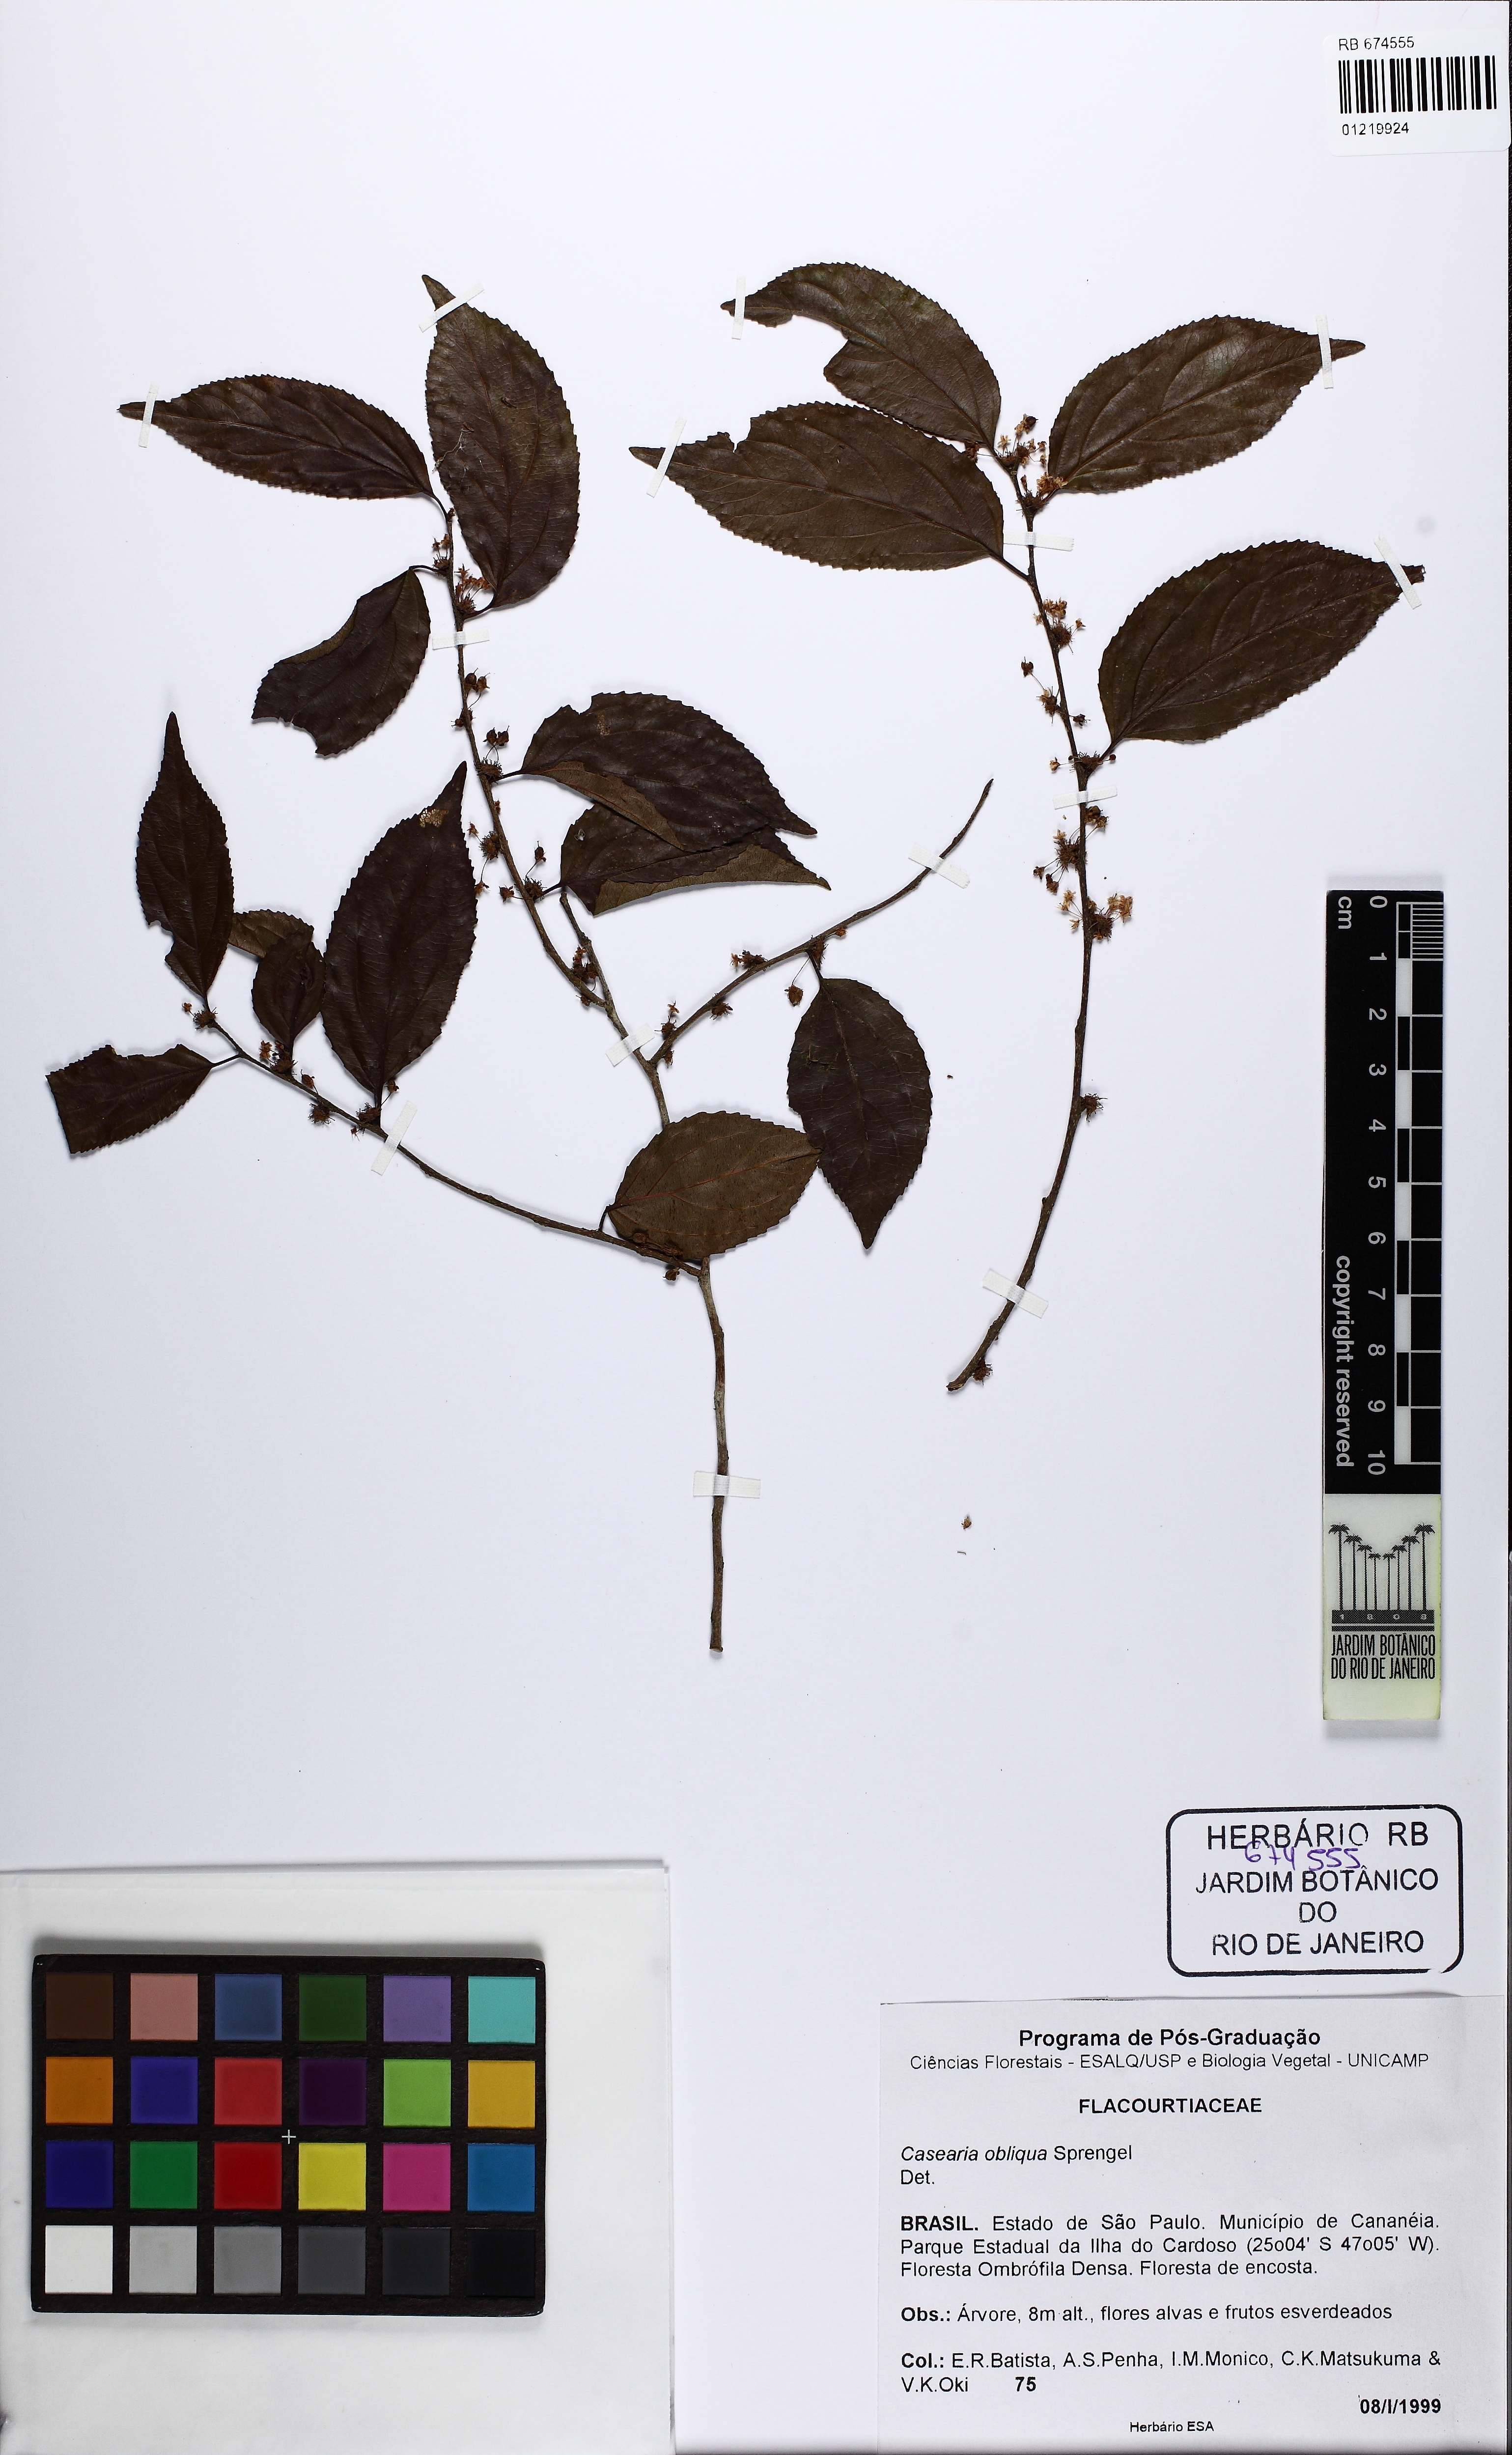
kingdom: Plantae
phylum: Tracheophyta
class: Magnoliopsida
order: Malpighiales
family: Salicaceae
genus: Casearia
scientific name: Casearia obliqua
